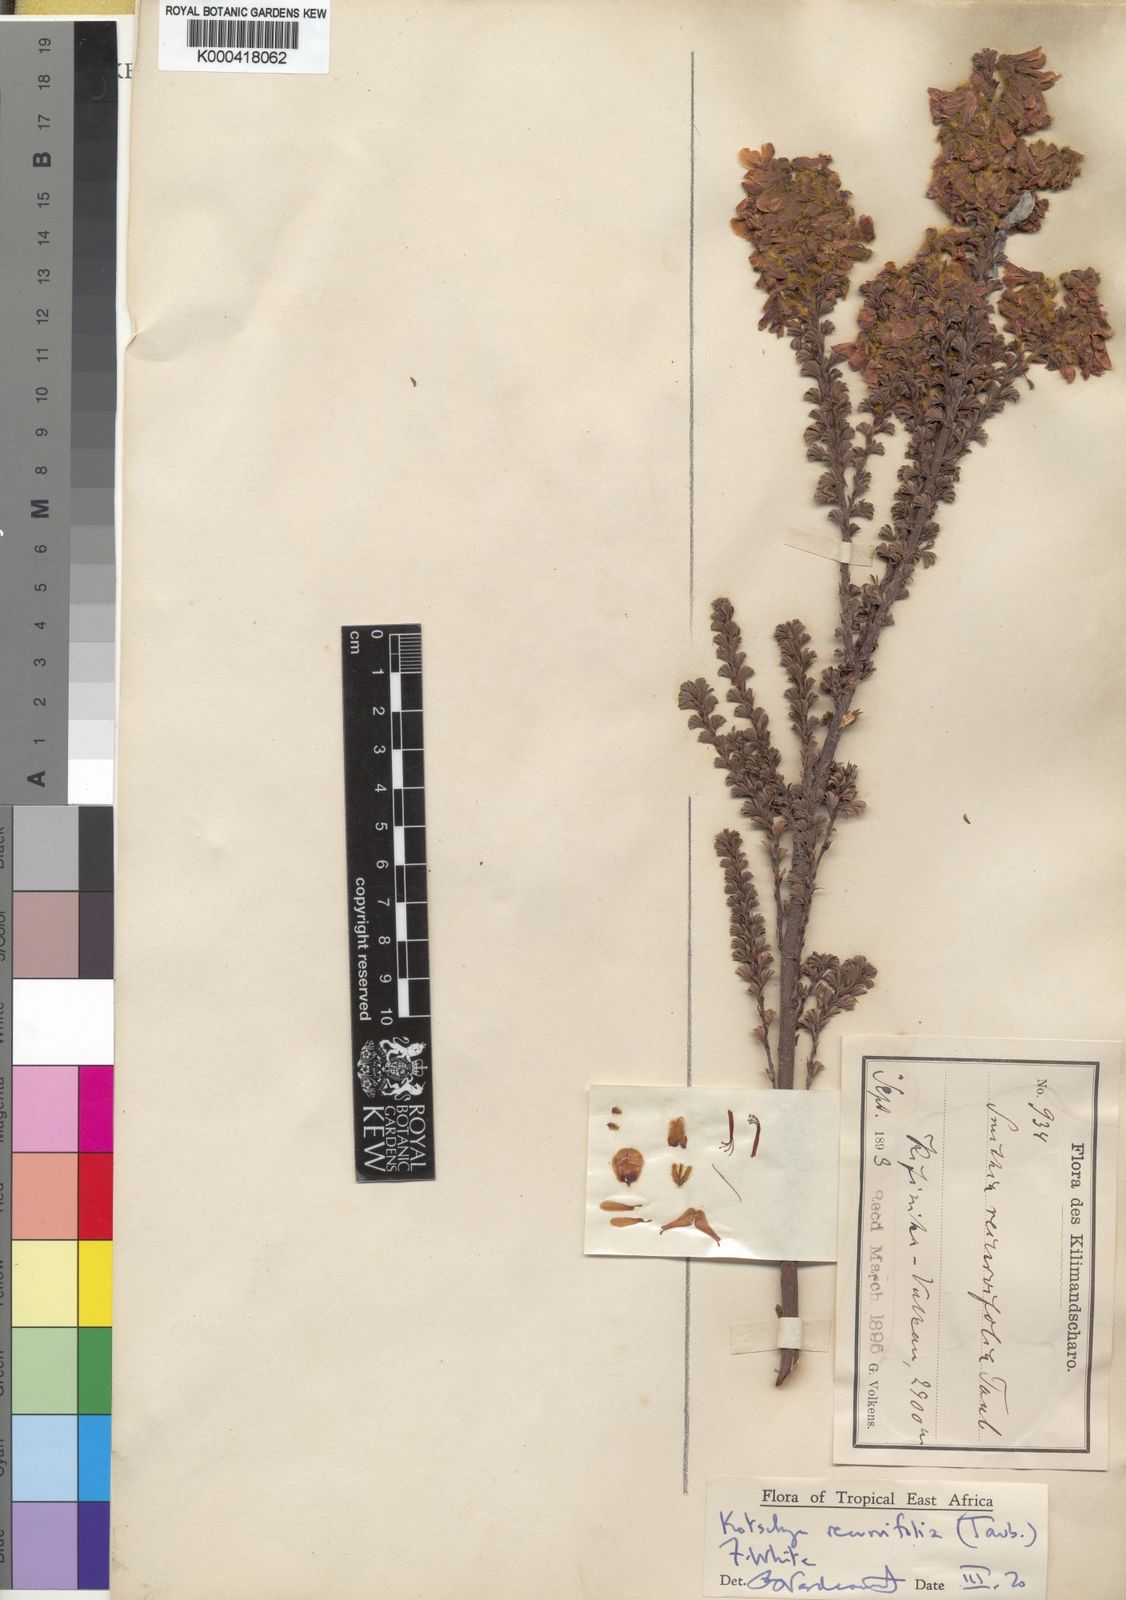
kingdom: Plantae
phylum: Tracheophyta
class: Magnoliopsida
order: Fabales
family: Fabaceae
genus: Kotschya
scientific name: Kotschya recurvifolia
